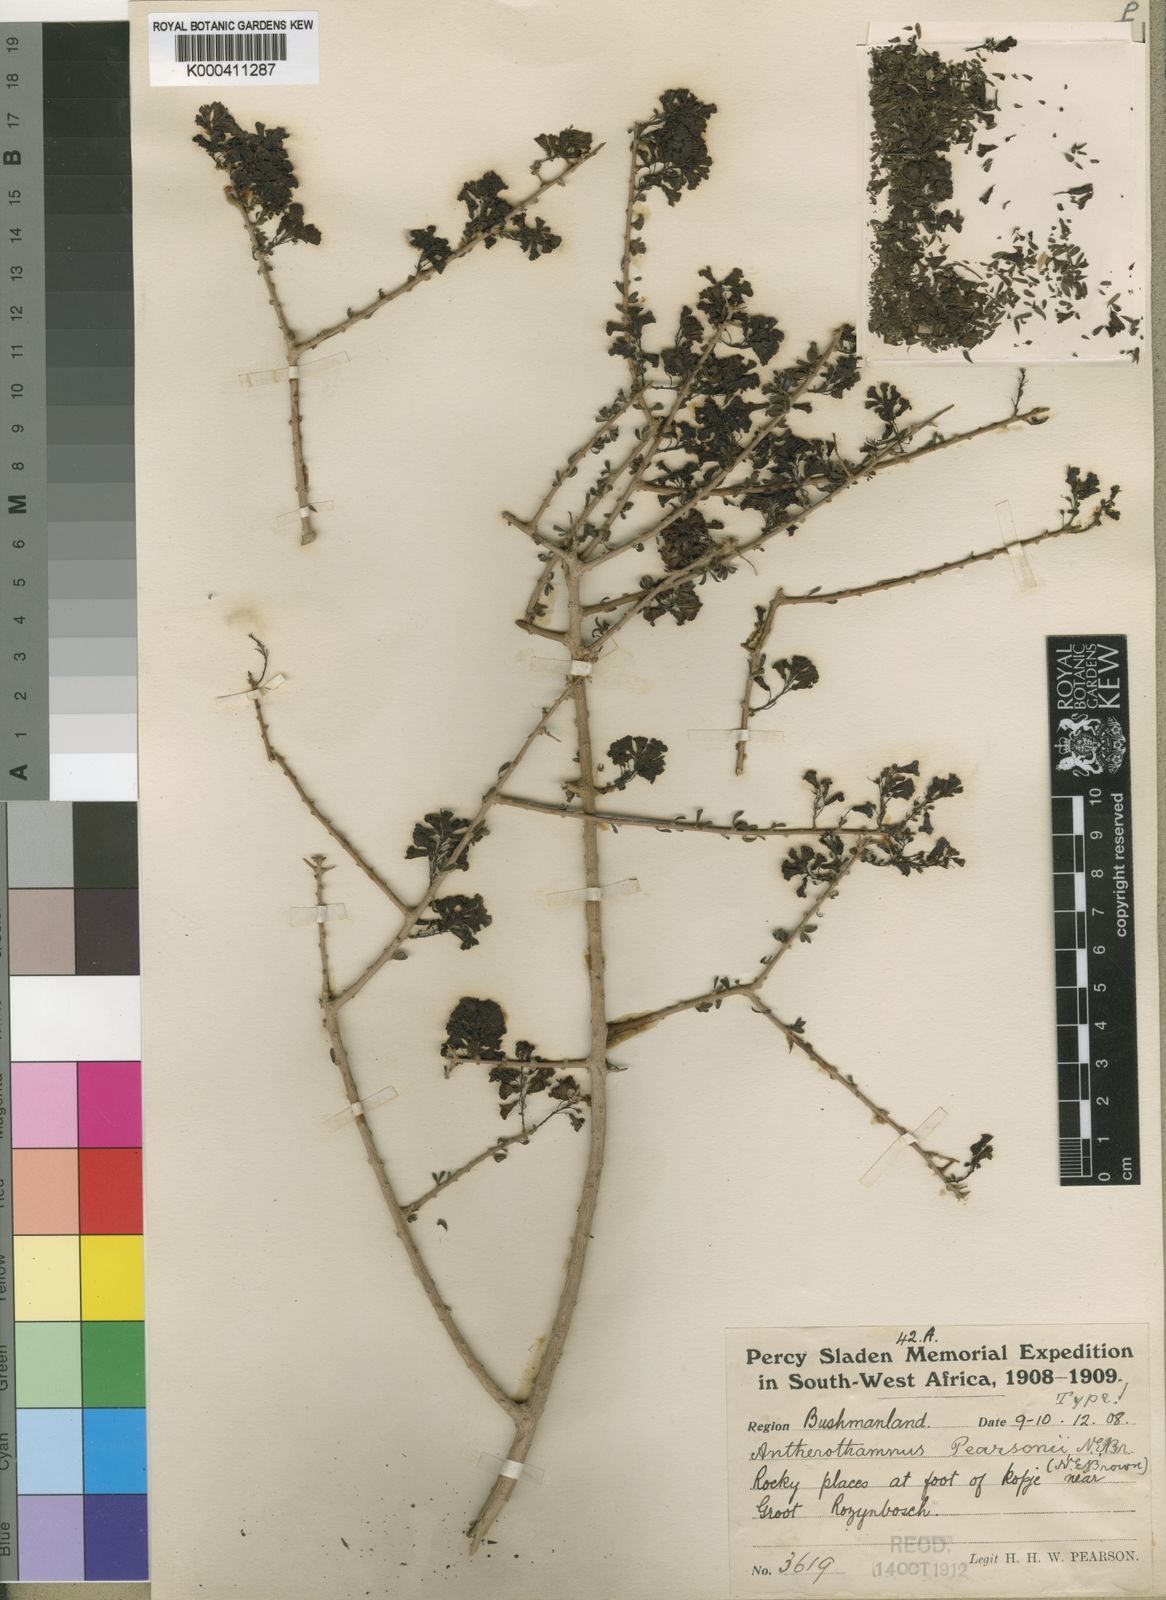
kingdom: Plantae
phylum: Tracheophyta
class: Magnoliopsida
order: Lamiales
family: Scrophulariaceae
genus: Antherothamnus
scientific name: Antherothamnus pearsonii
